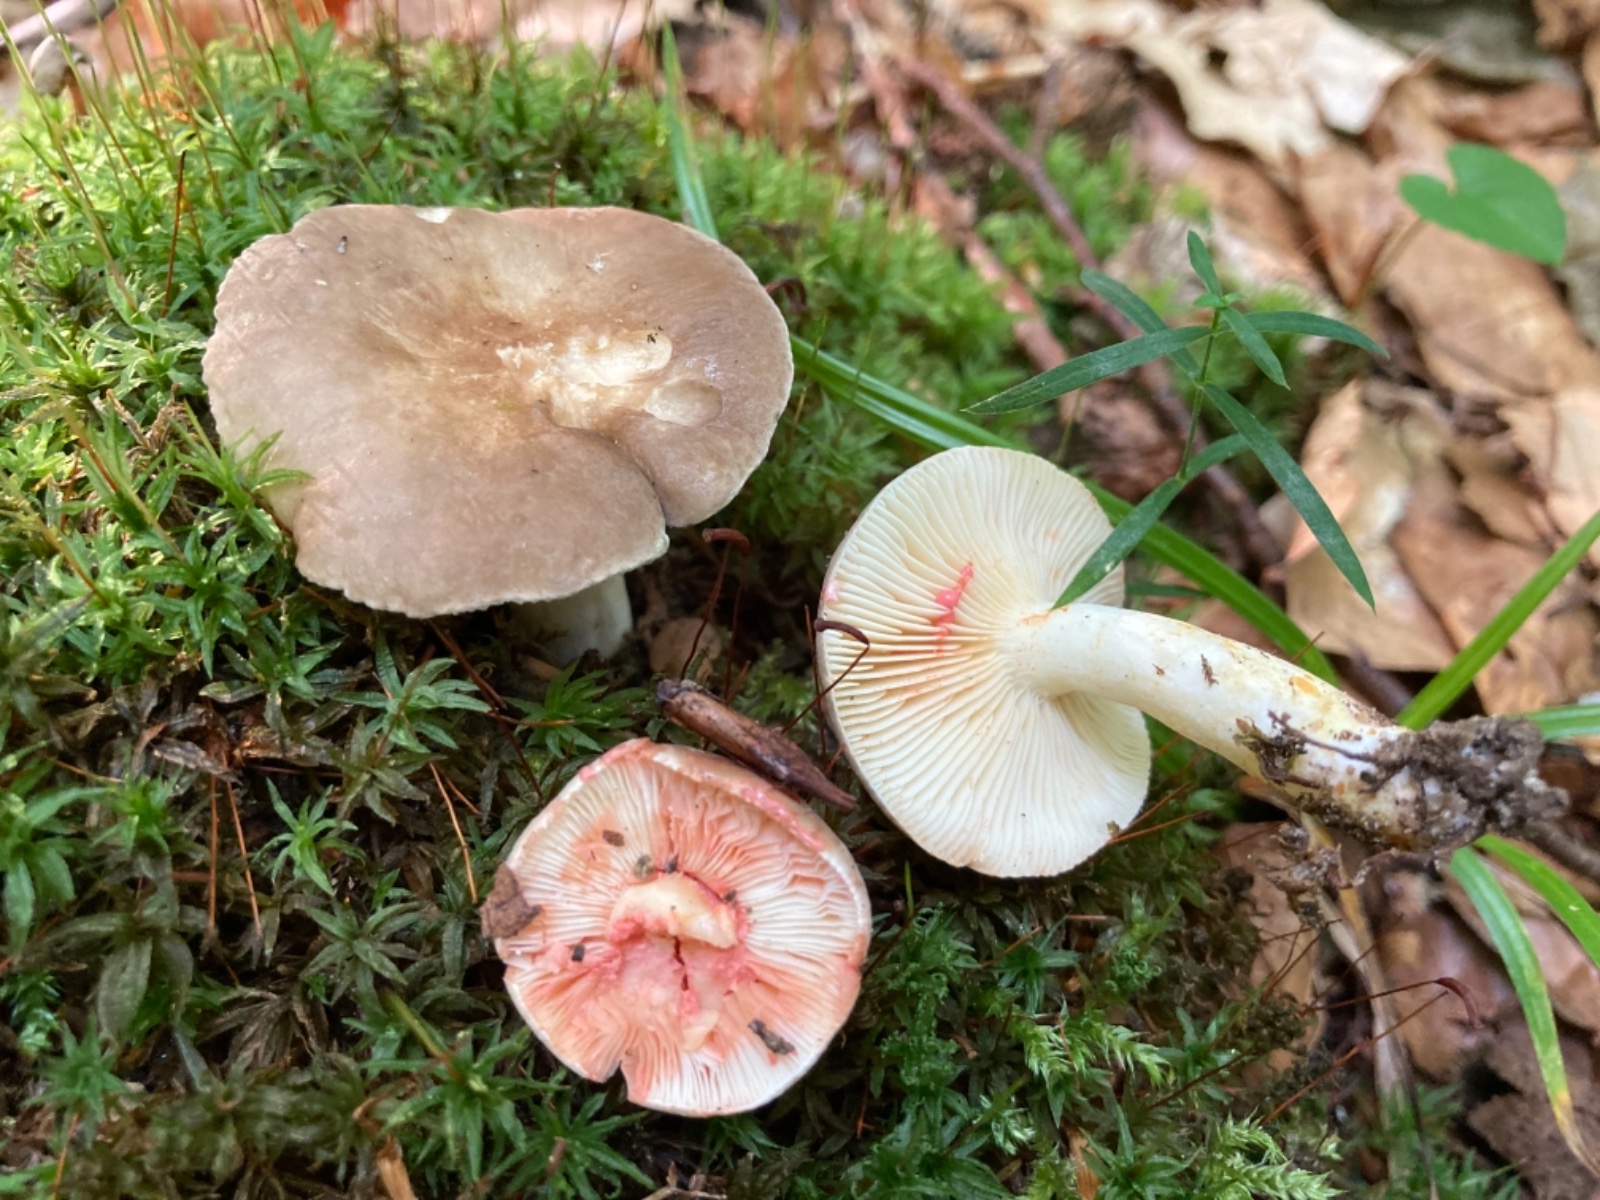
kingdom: Fungi
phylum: Basidiomycota
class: Agaricomycetes
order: Russulales
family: Russulaceae
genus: Lactarius
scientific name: Lactarius acris
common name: rosamælket mælkehat
